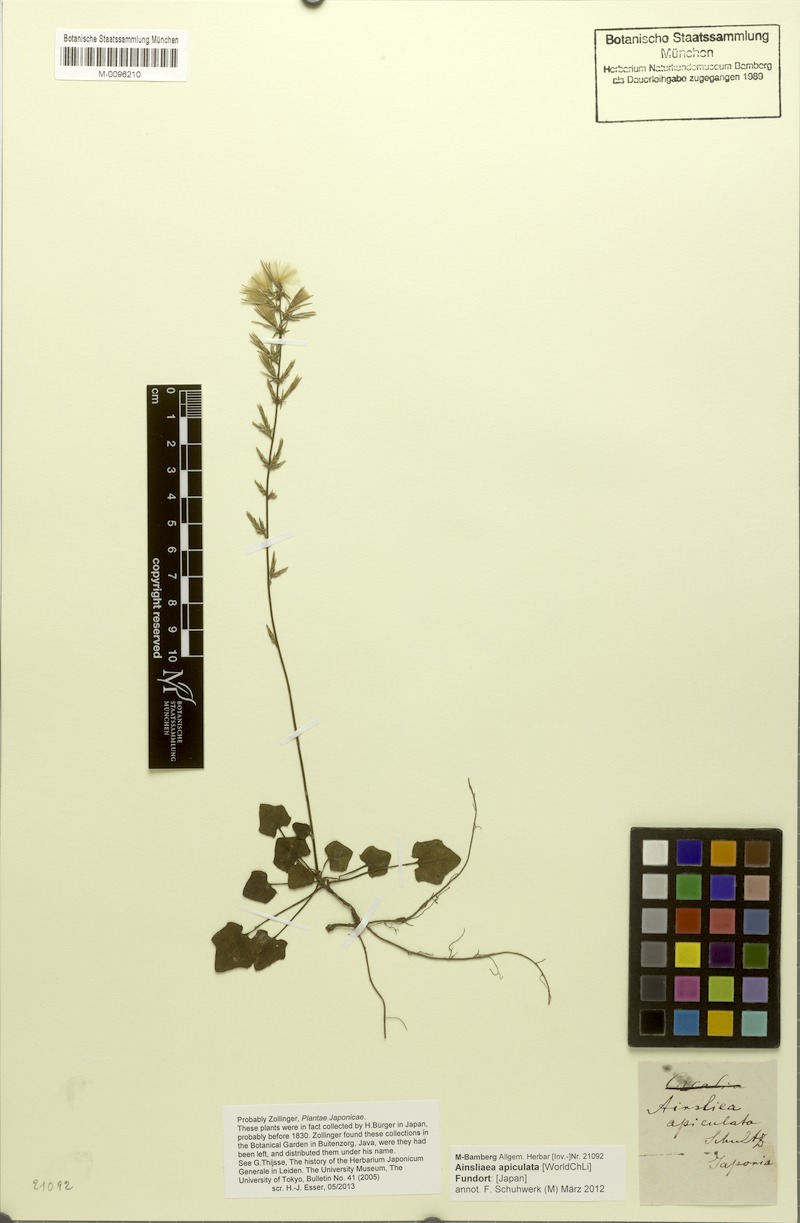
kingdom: Plantae
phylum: Tracheophyta
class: Magnoliopsida
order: Asterales
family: Asteraceae
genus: Ainsliaea
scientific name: Ainsliaea apiculata
